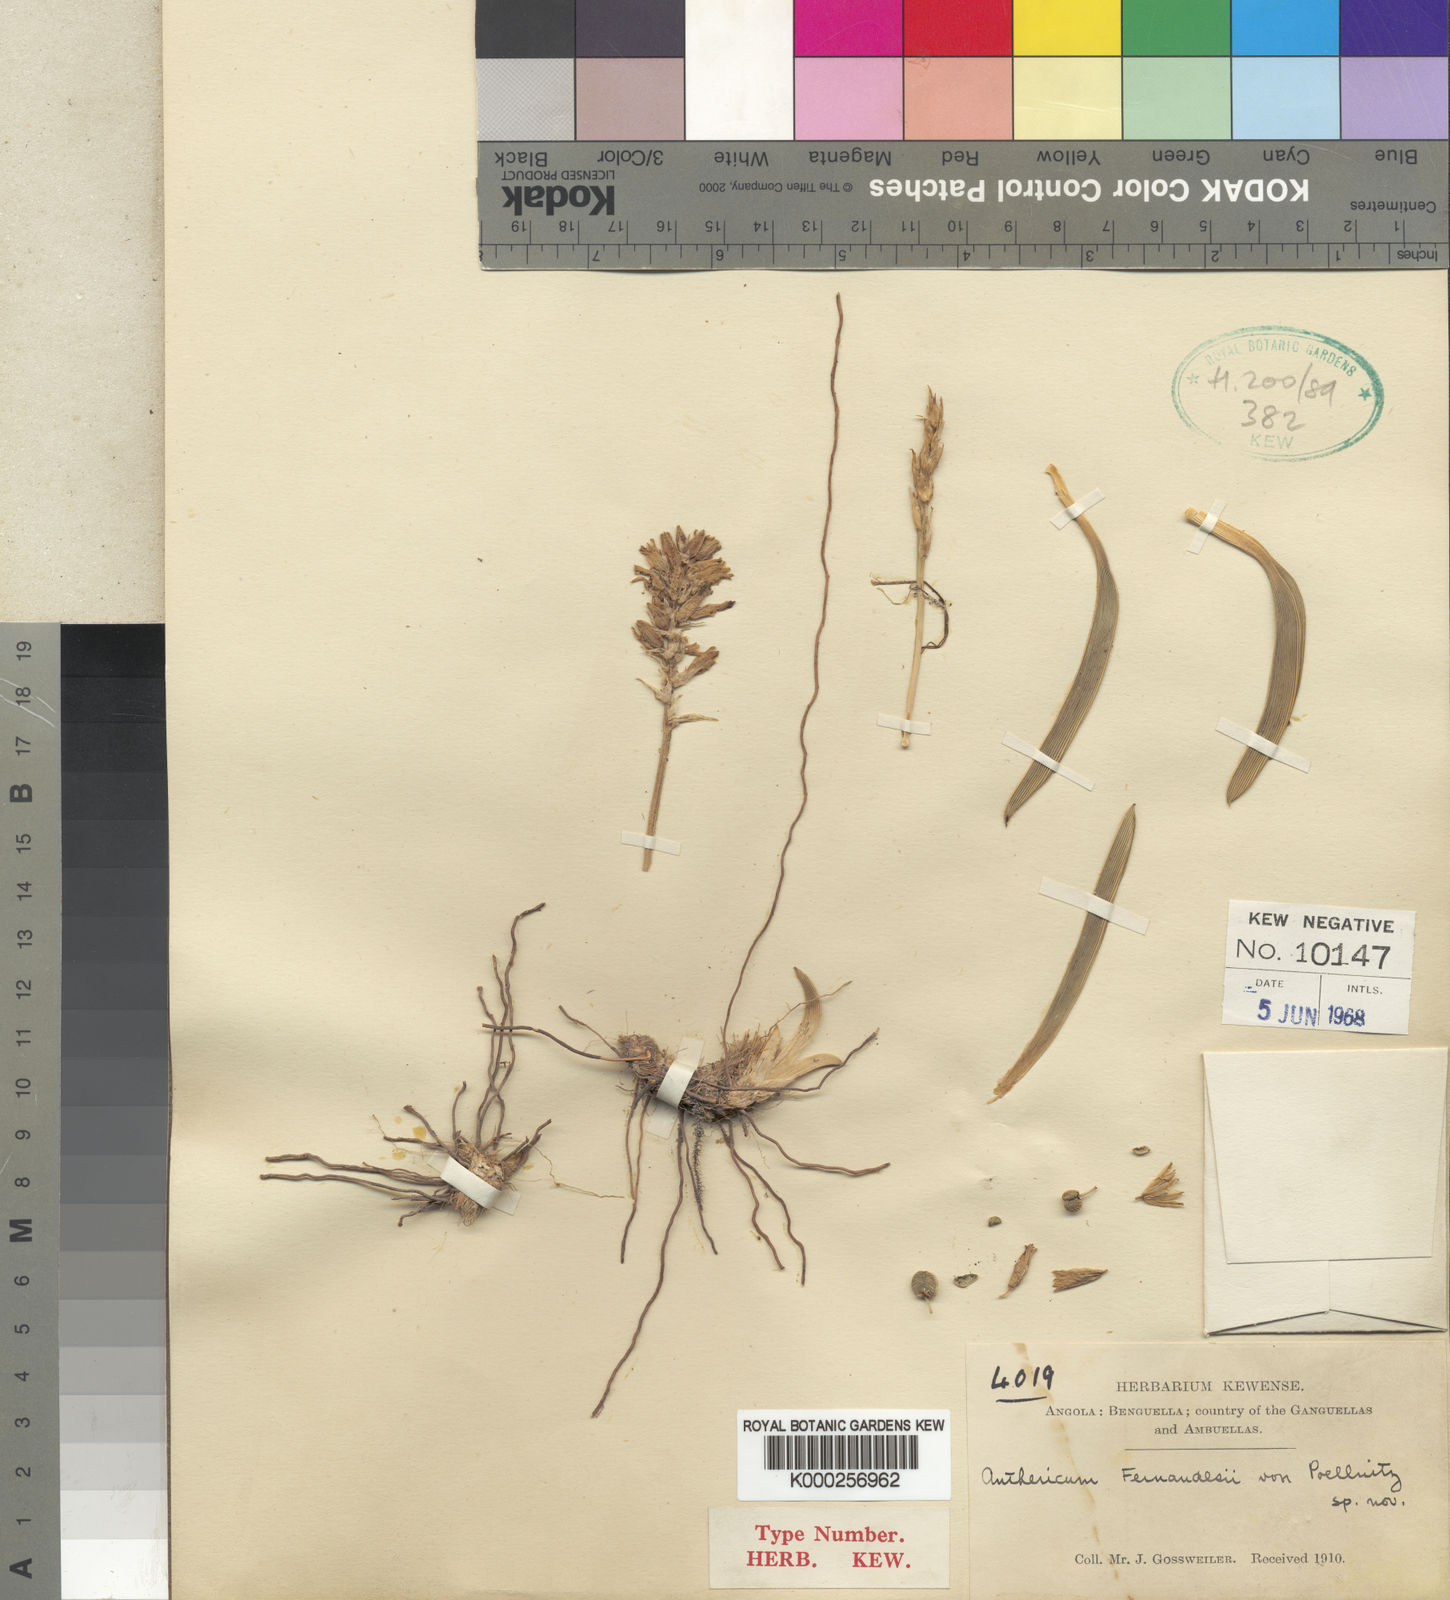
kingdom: Plantae
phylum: Tracheophyta
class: Liliopsida
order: Asparagales
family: Asparagaceae
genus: Chlorophytum
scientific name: Chlorophytum fernandesii
